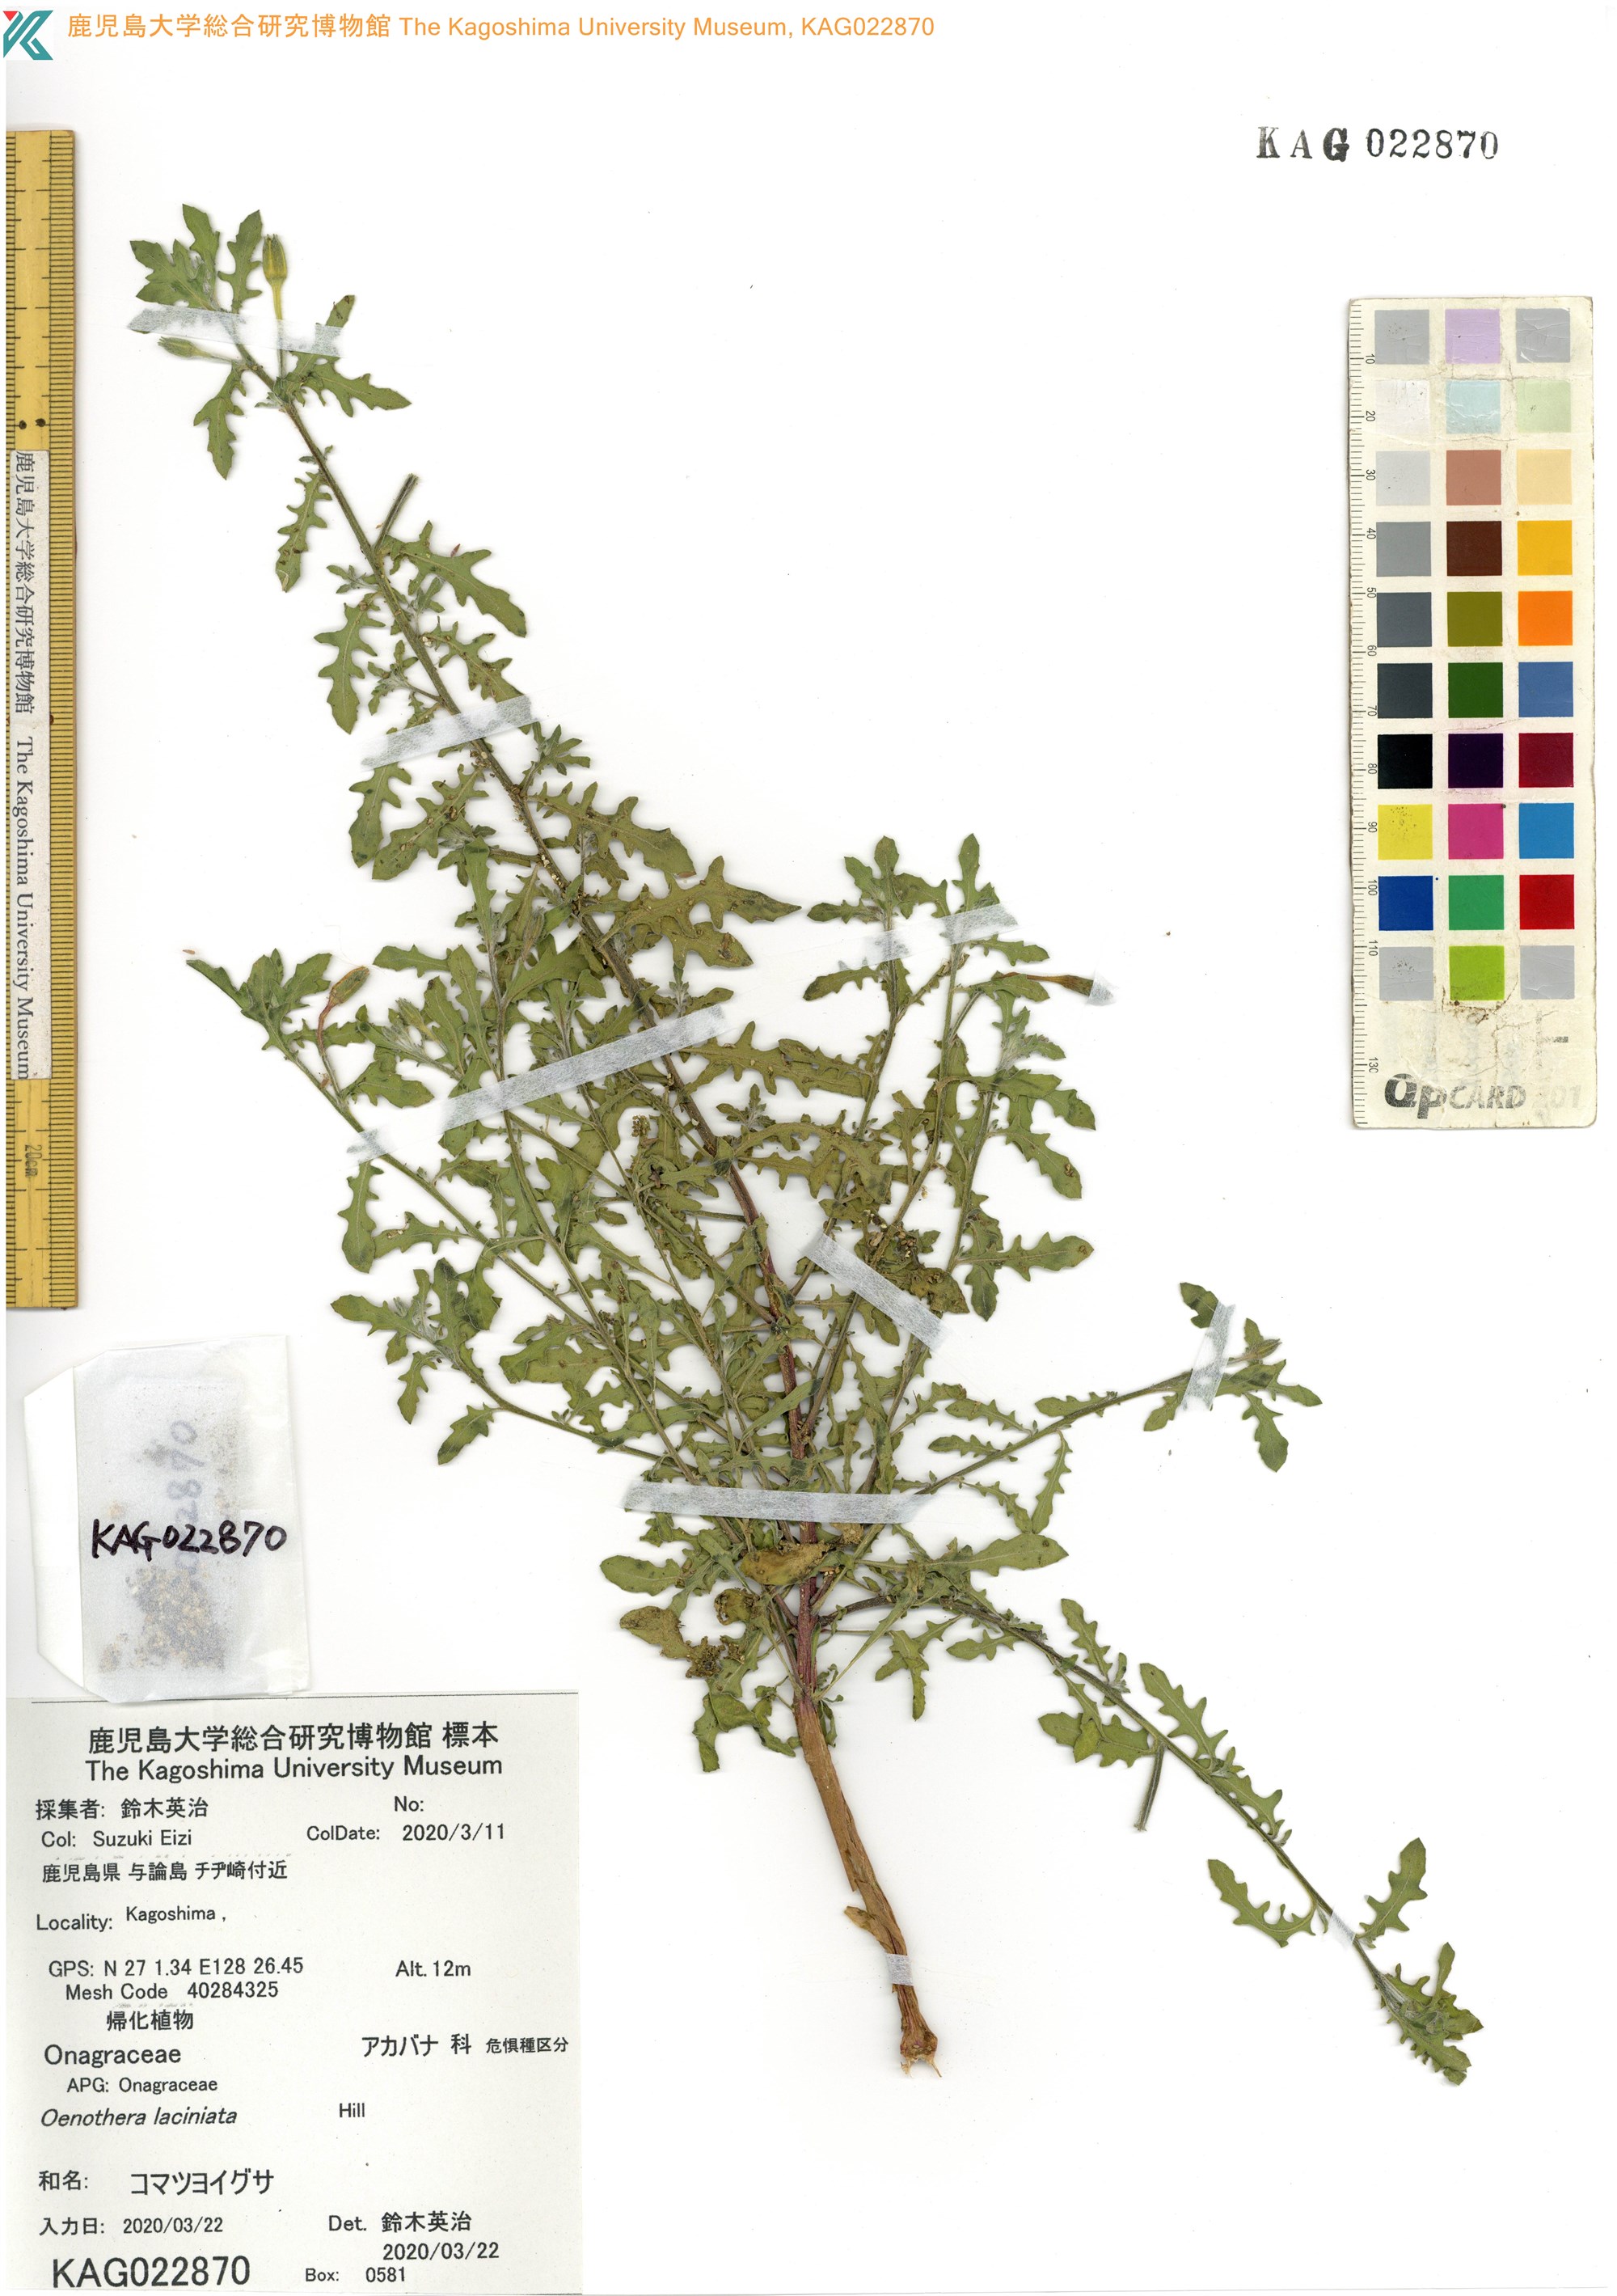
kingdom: Plantae
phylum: Tracheophyta
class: Magnoliopsida
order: Myrtales
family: Onagraceae
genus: Oenothera
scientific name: Oenothera laciniata
